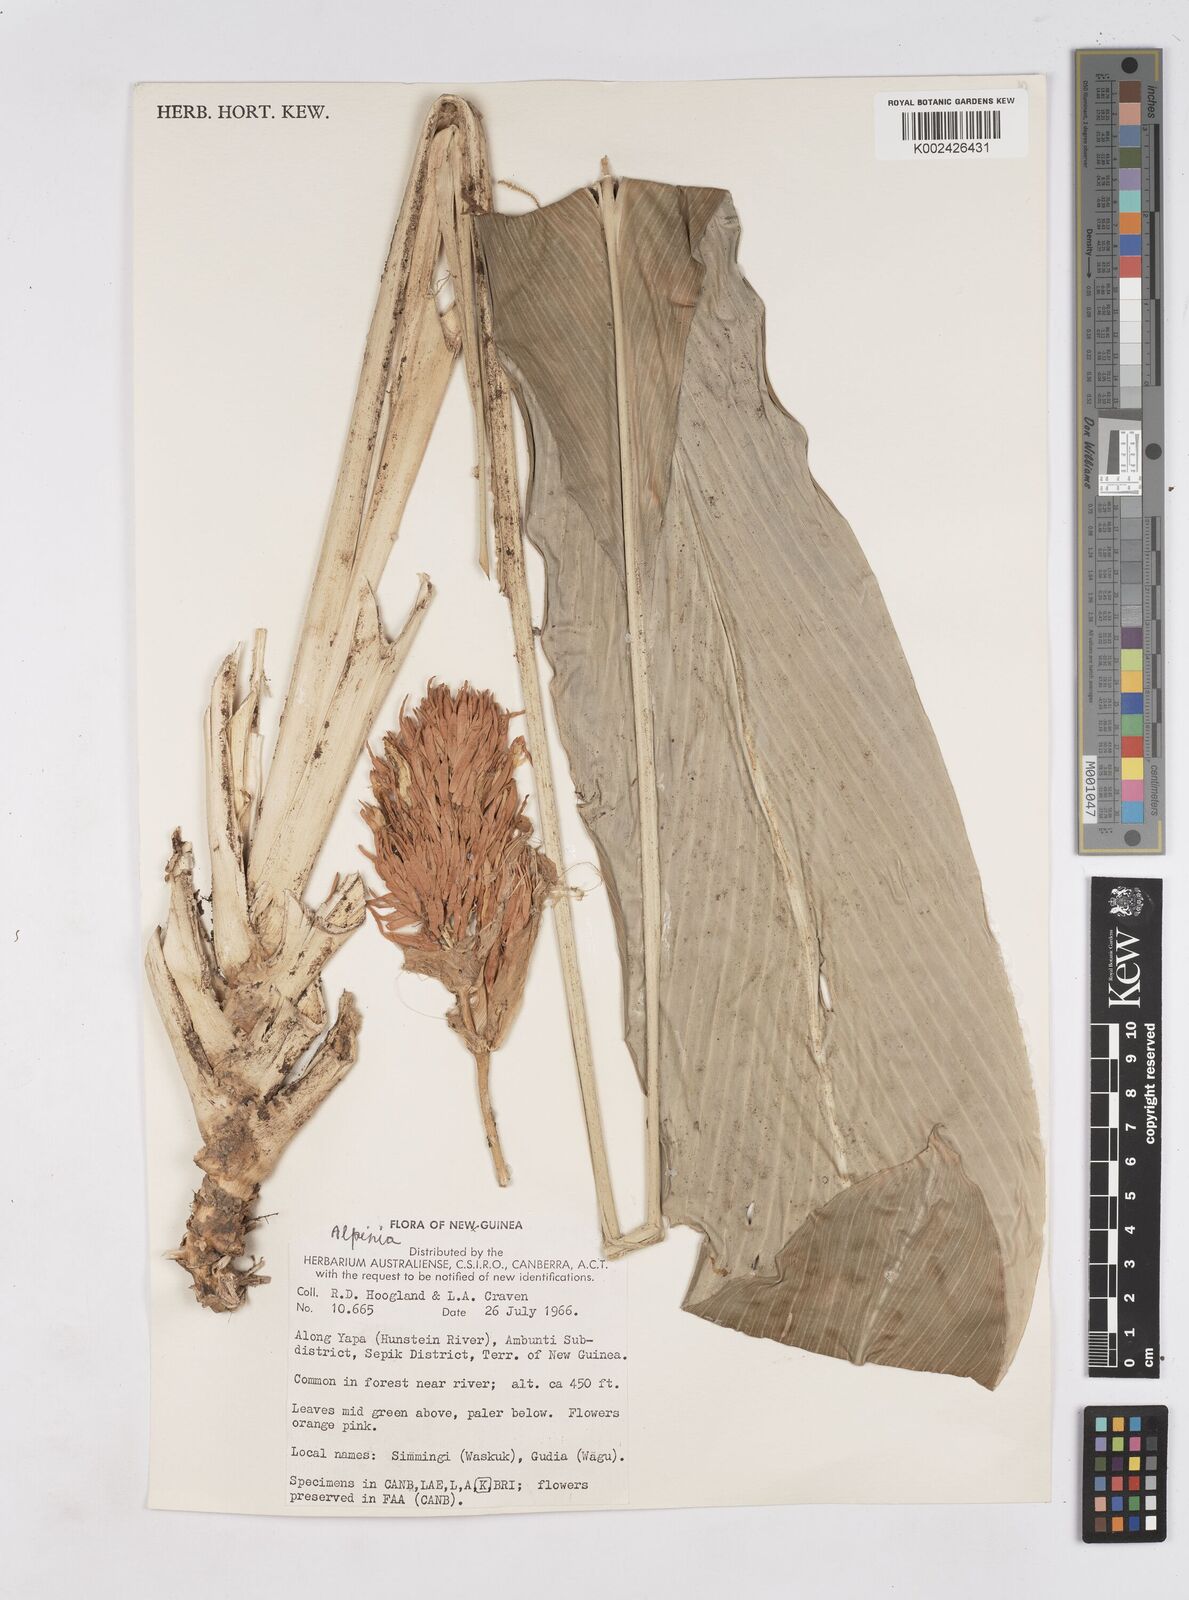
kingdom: Plantae
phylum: Tracheophyta
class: Liliopsida
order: Zingiberales
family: Zingiberaceae
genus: Riedelia
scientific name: Riedelia corallina
